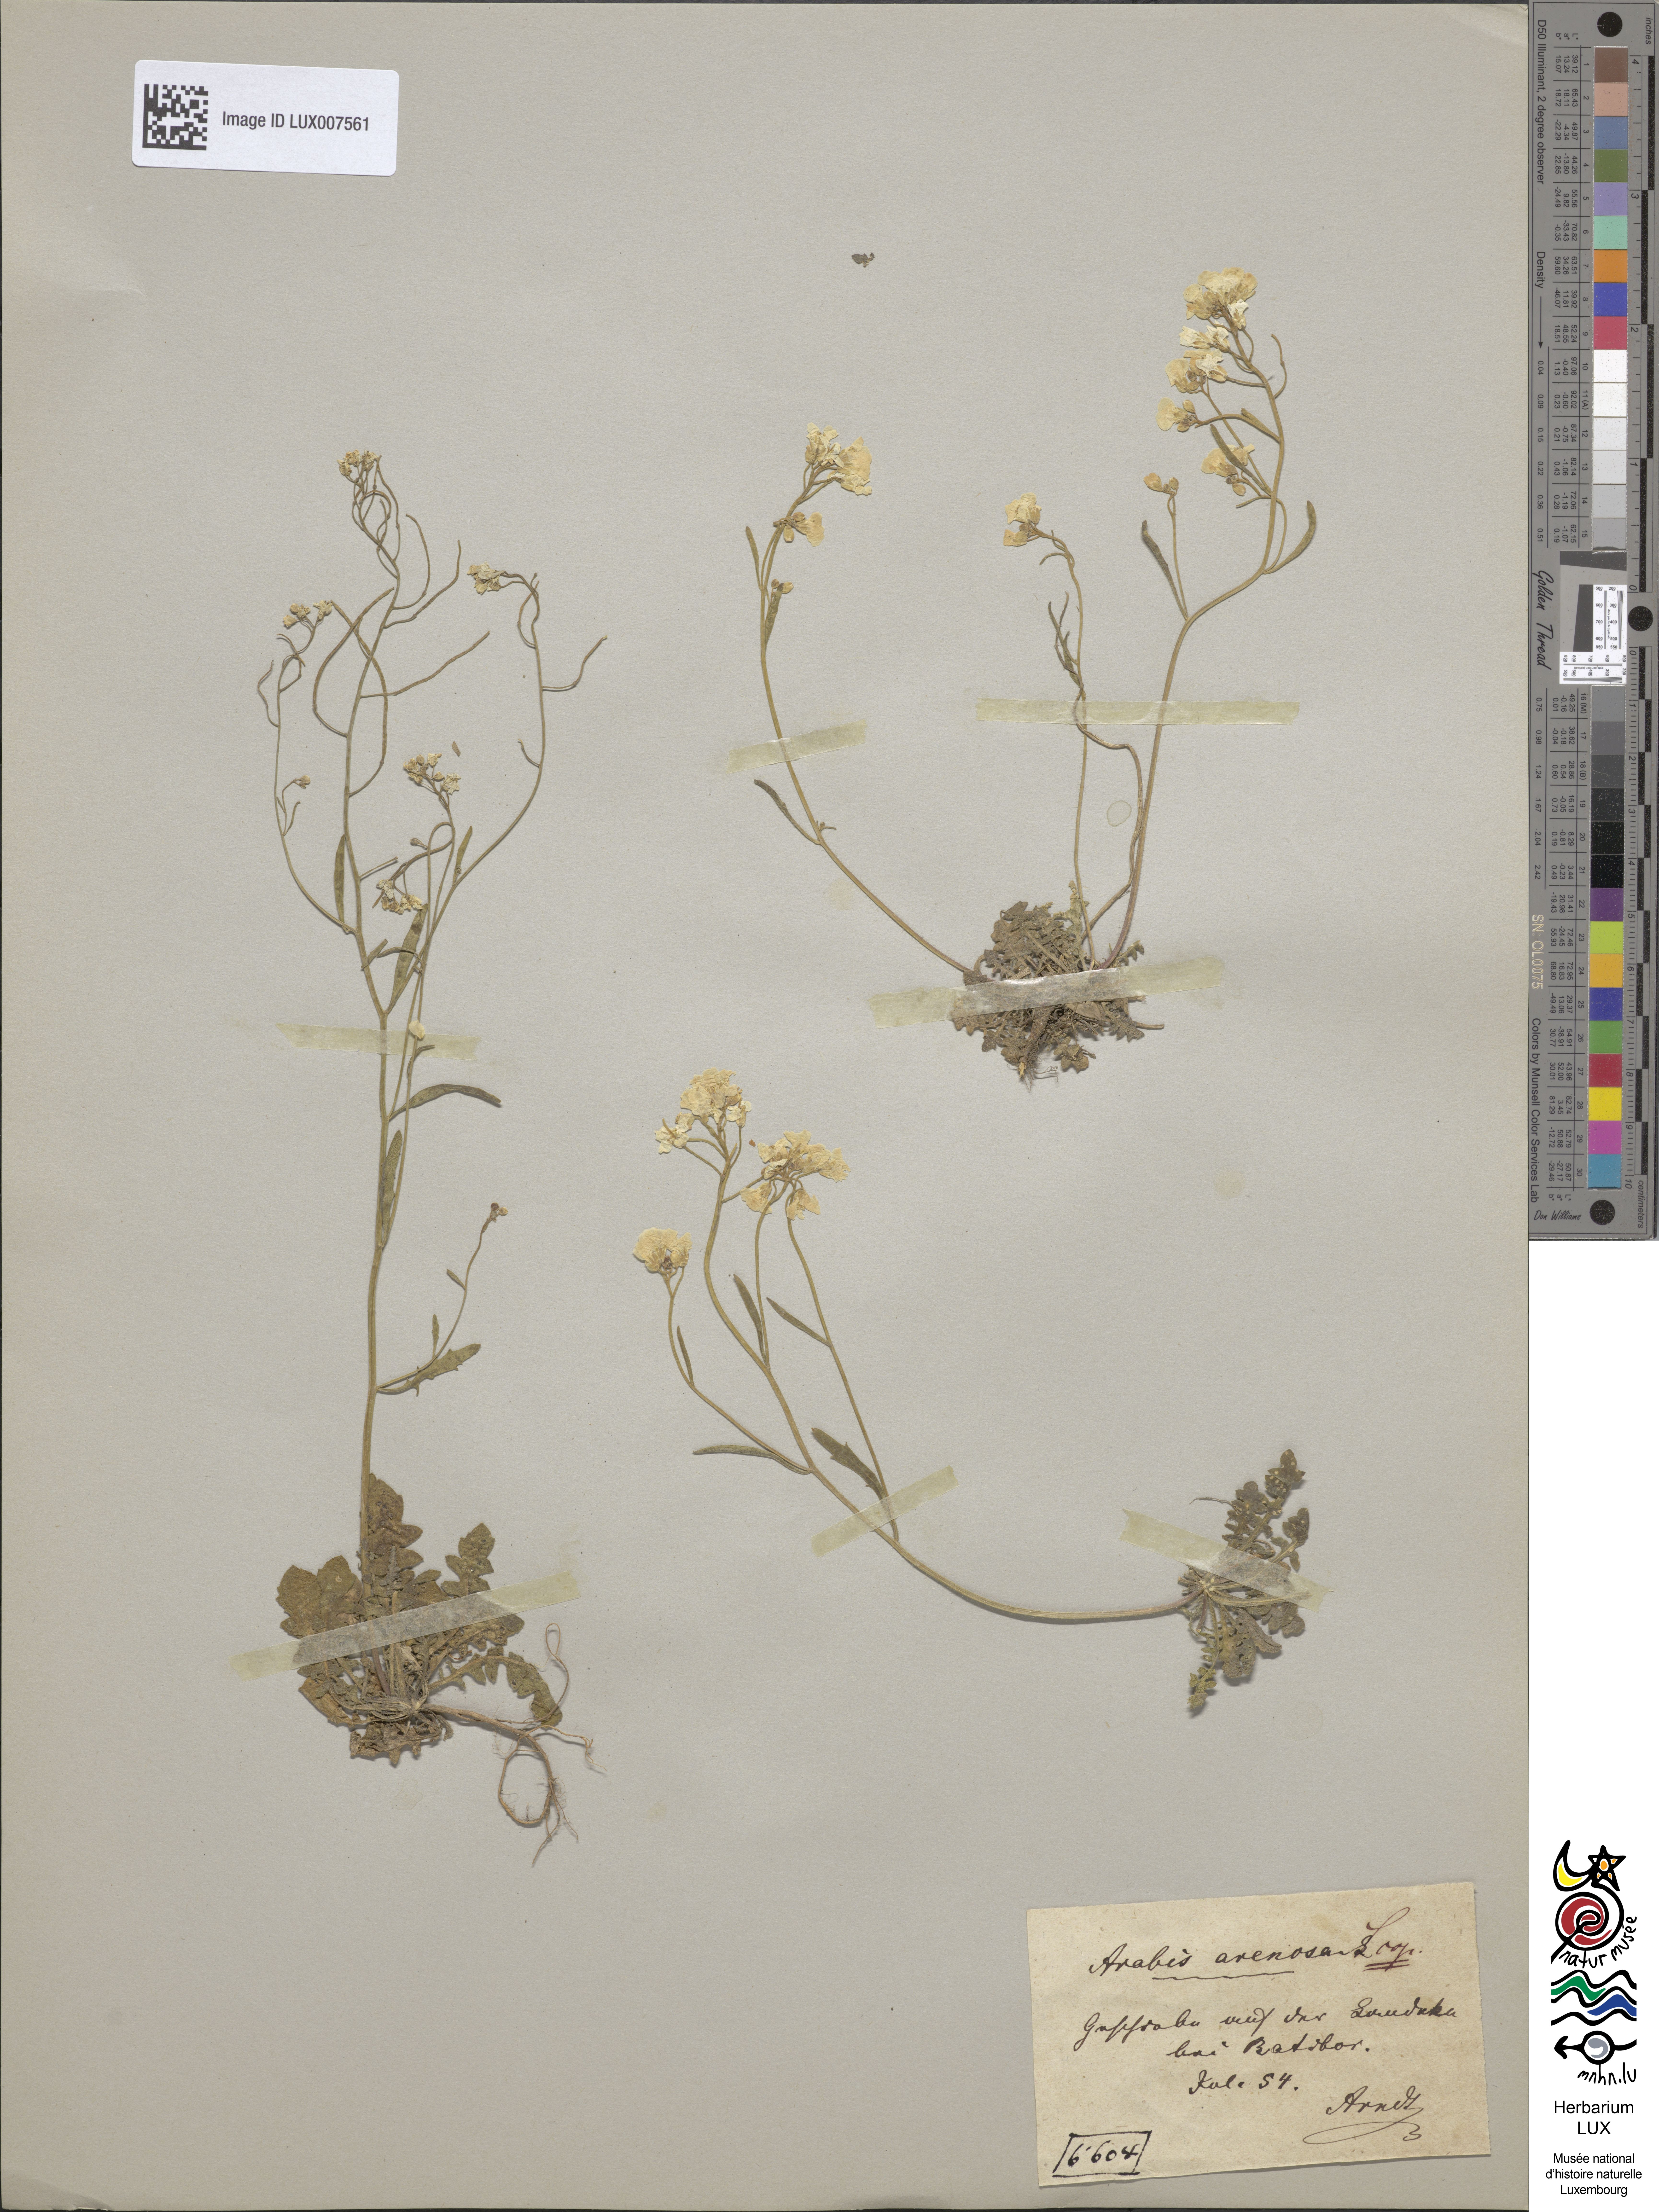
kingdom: Plantae
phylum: Tracheophyta
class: Magnoliopsida
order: Brassicales
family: Brassicaceae
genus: Arabidopsis
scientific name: Arabidopsis arenosa
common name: Sand rock-cress
